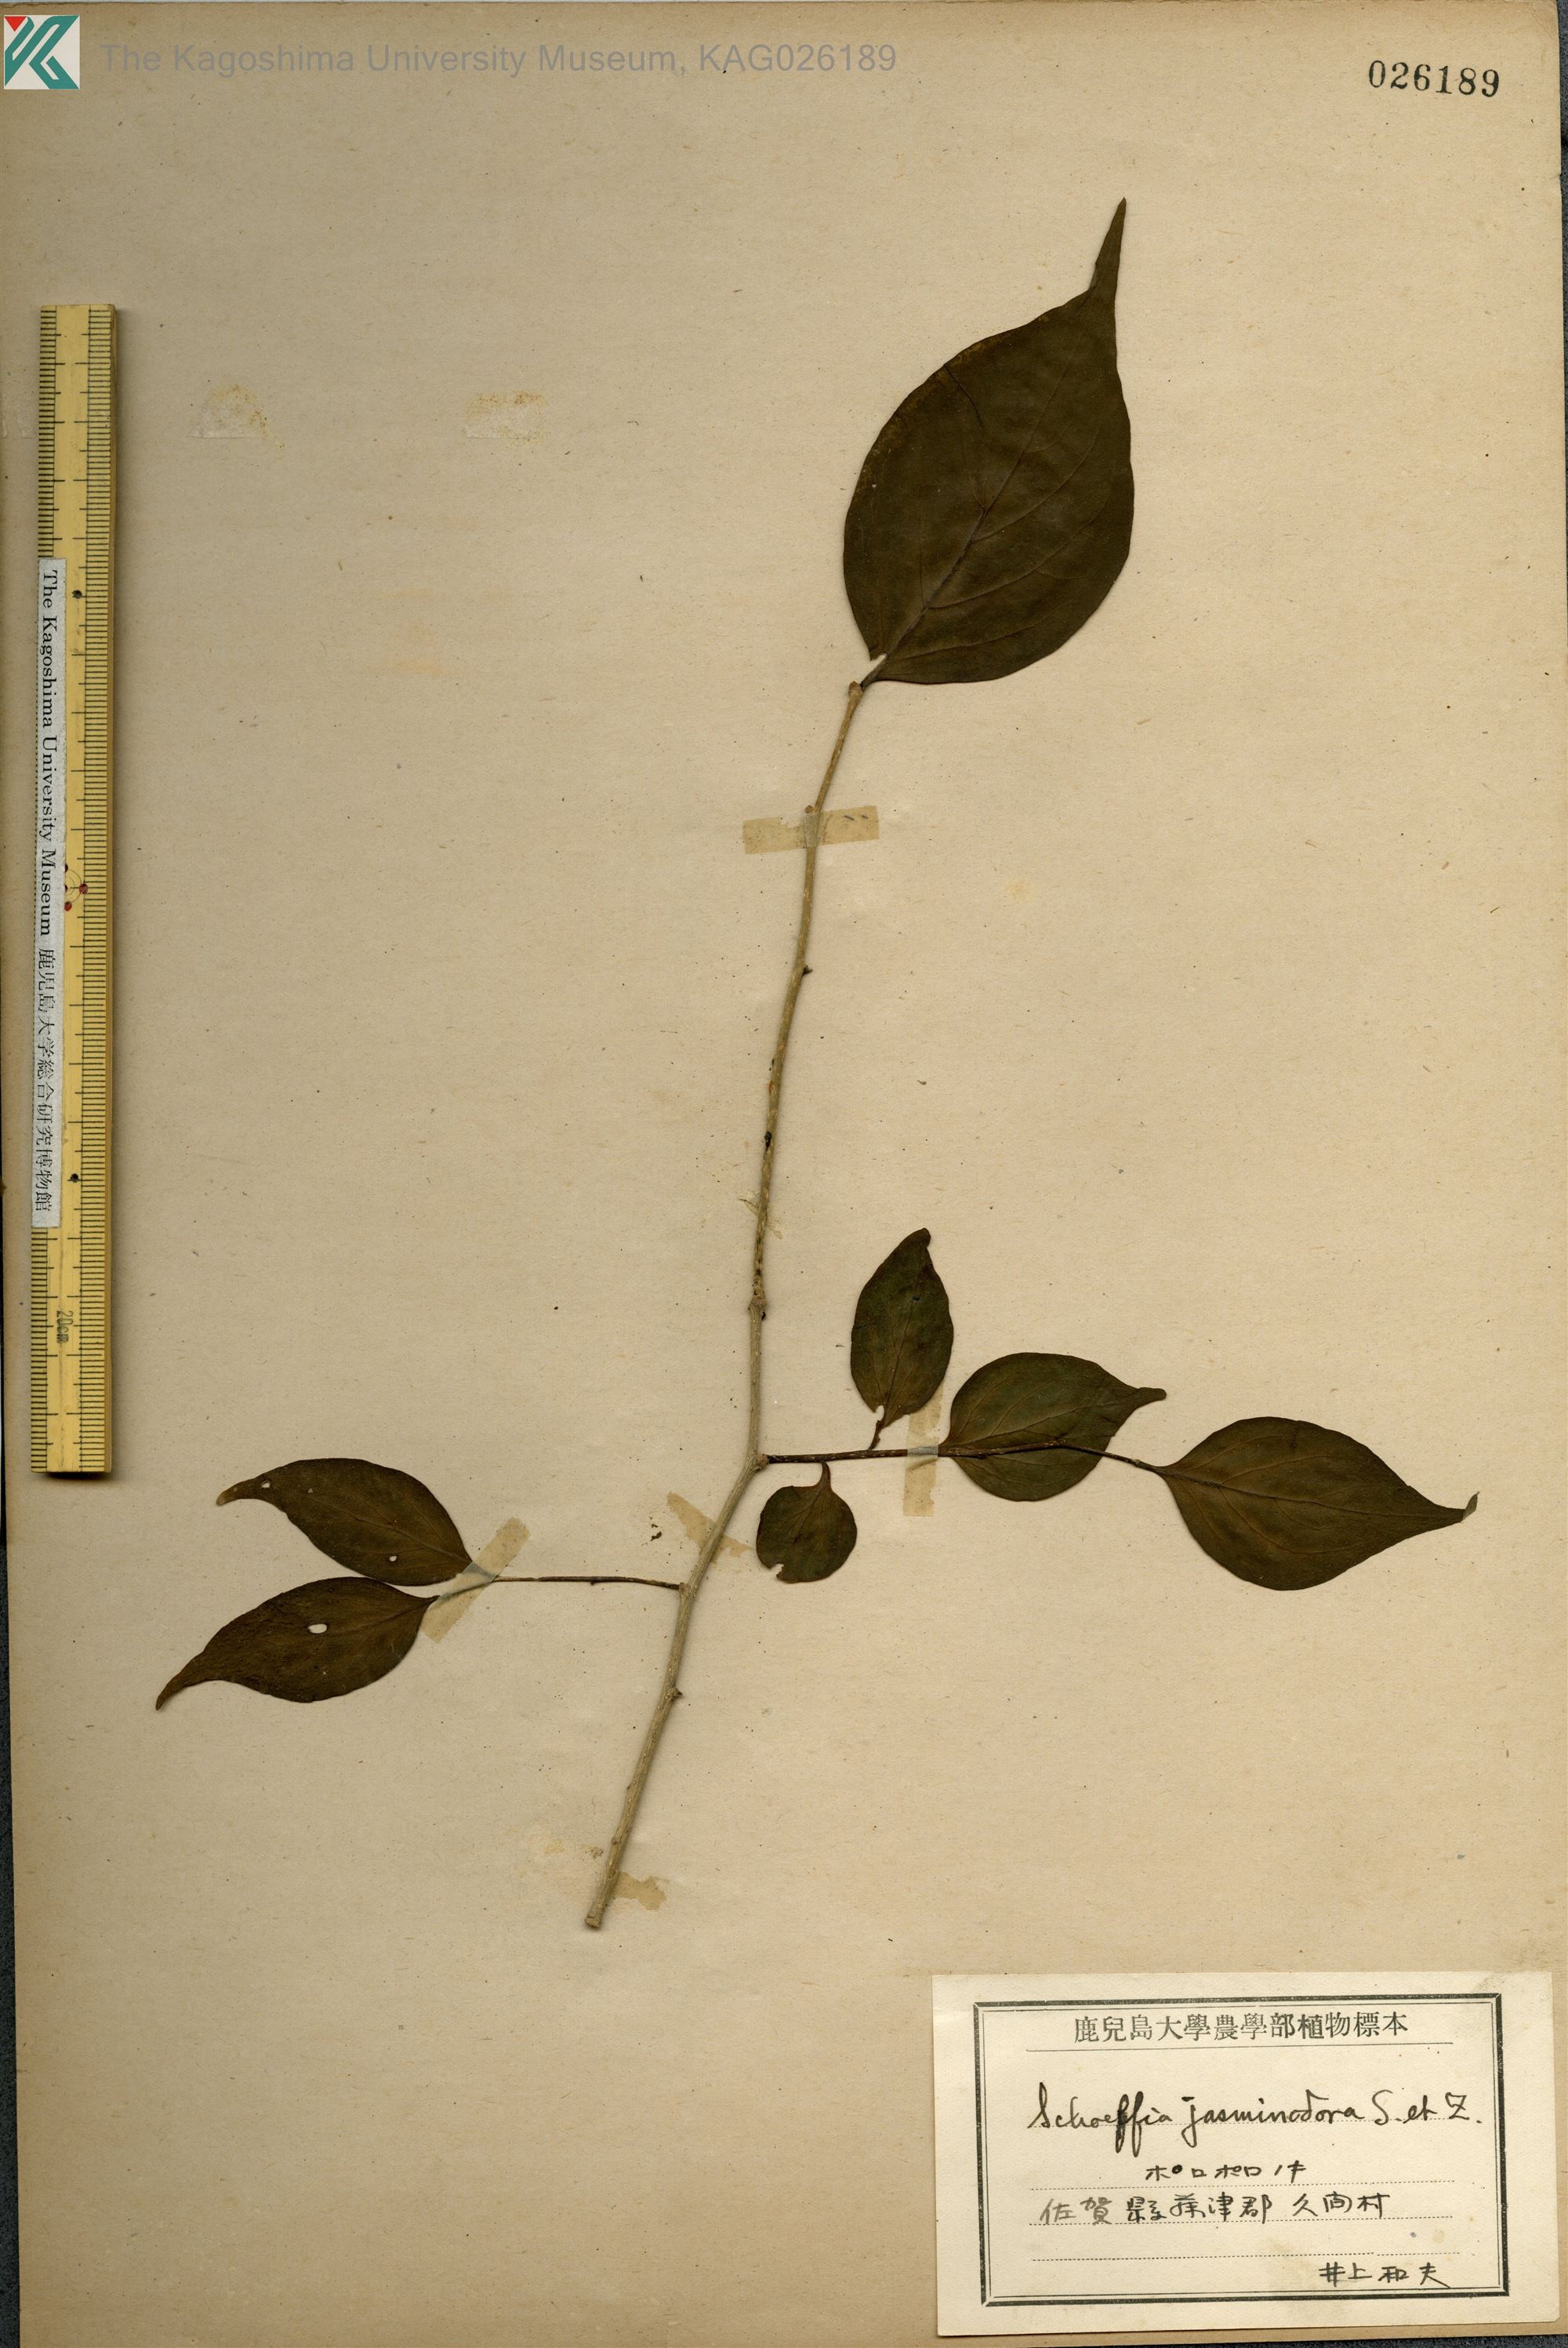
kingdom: Plantae
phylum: Tracheophyta
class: Magnoliopsida
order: Santalales
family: Schoepfiaceae
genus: Schoepfia
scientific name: Schoepfia jasminodora
